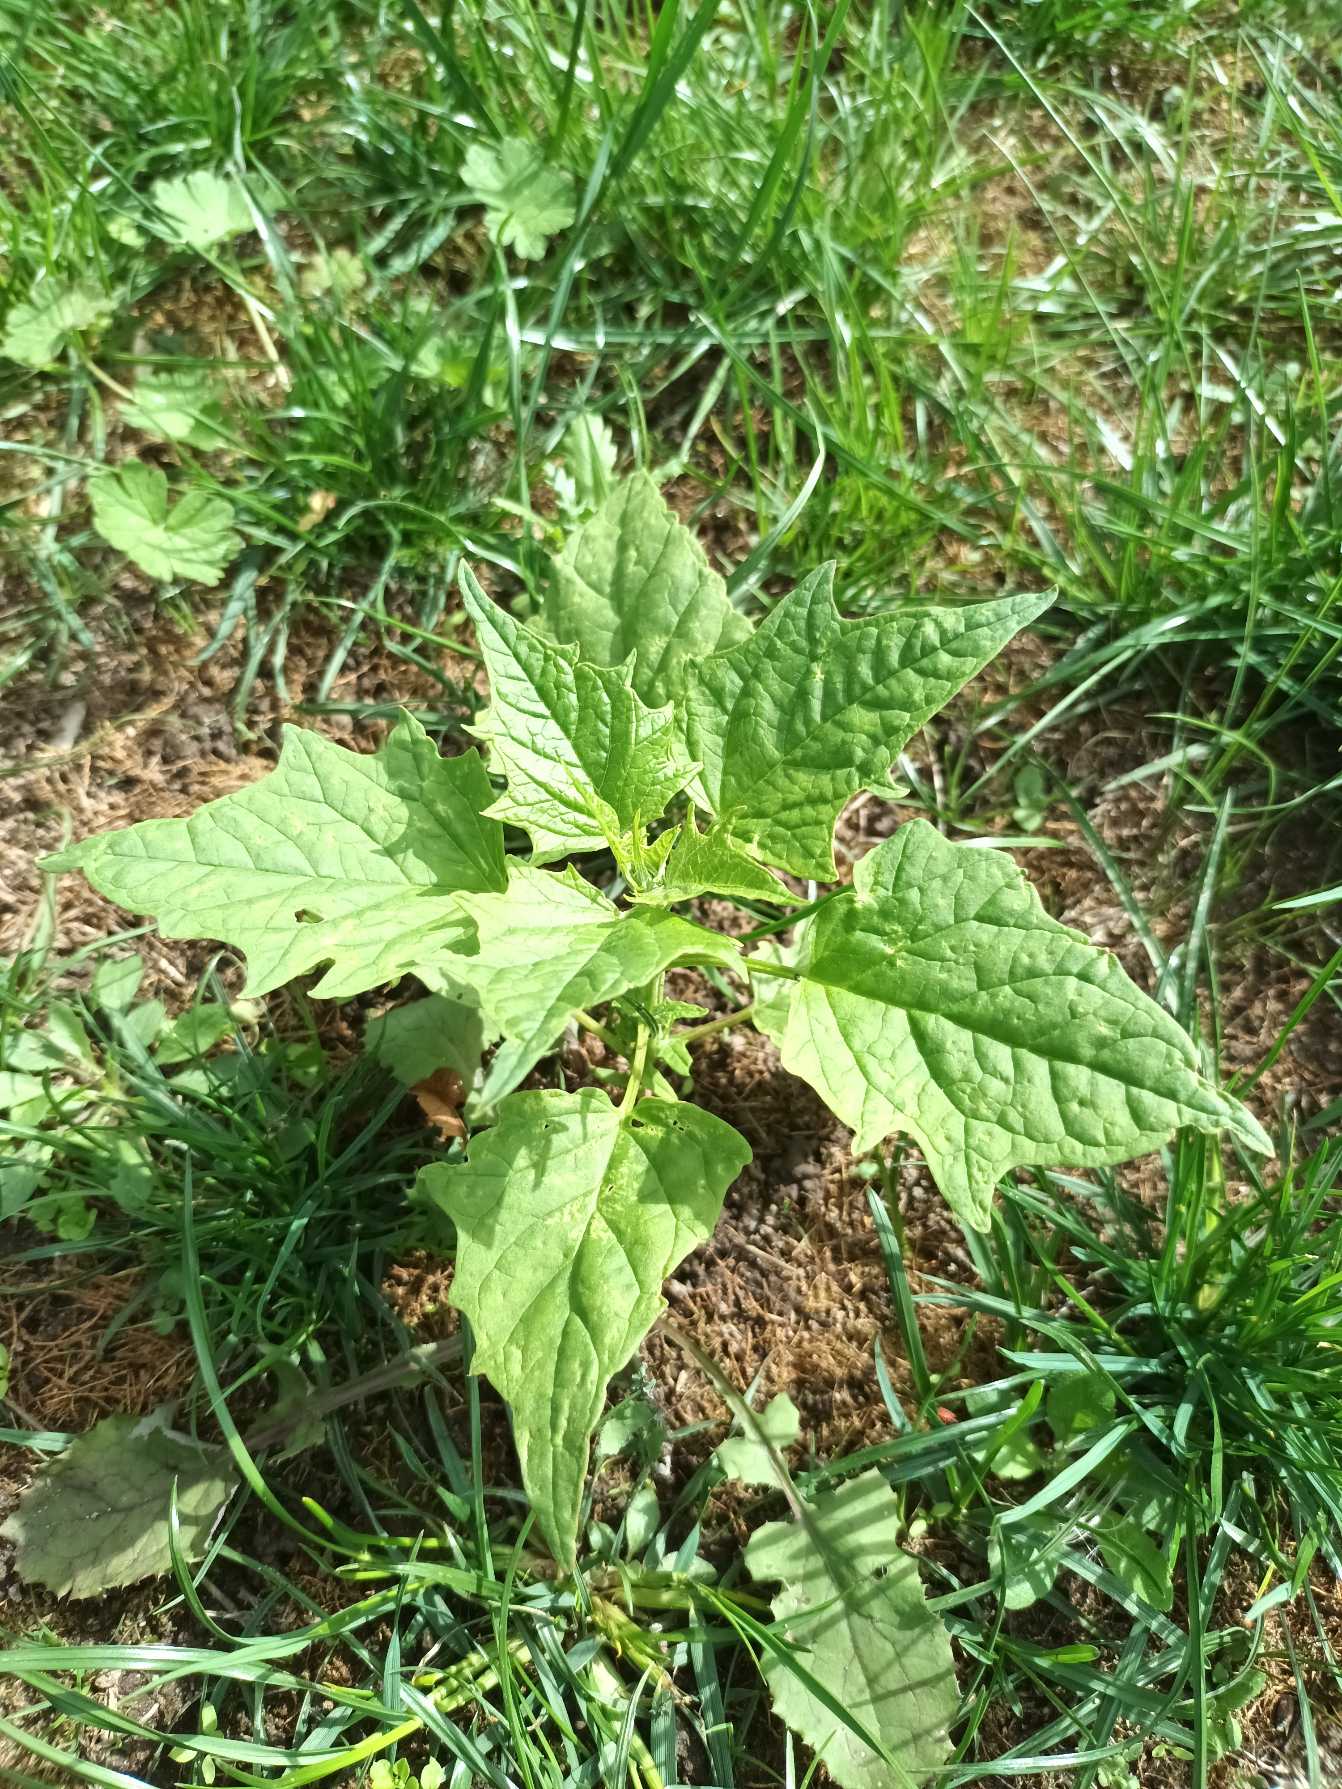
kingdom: Plantae
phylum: Tracheophyta
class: Magnoliopsida
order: Caryophyllales
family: Amaranthaceae
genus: Chenopodiastrum
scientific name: Chenopodiastrum hybridum
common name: Hjertebladet gåsefod
